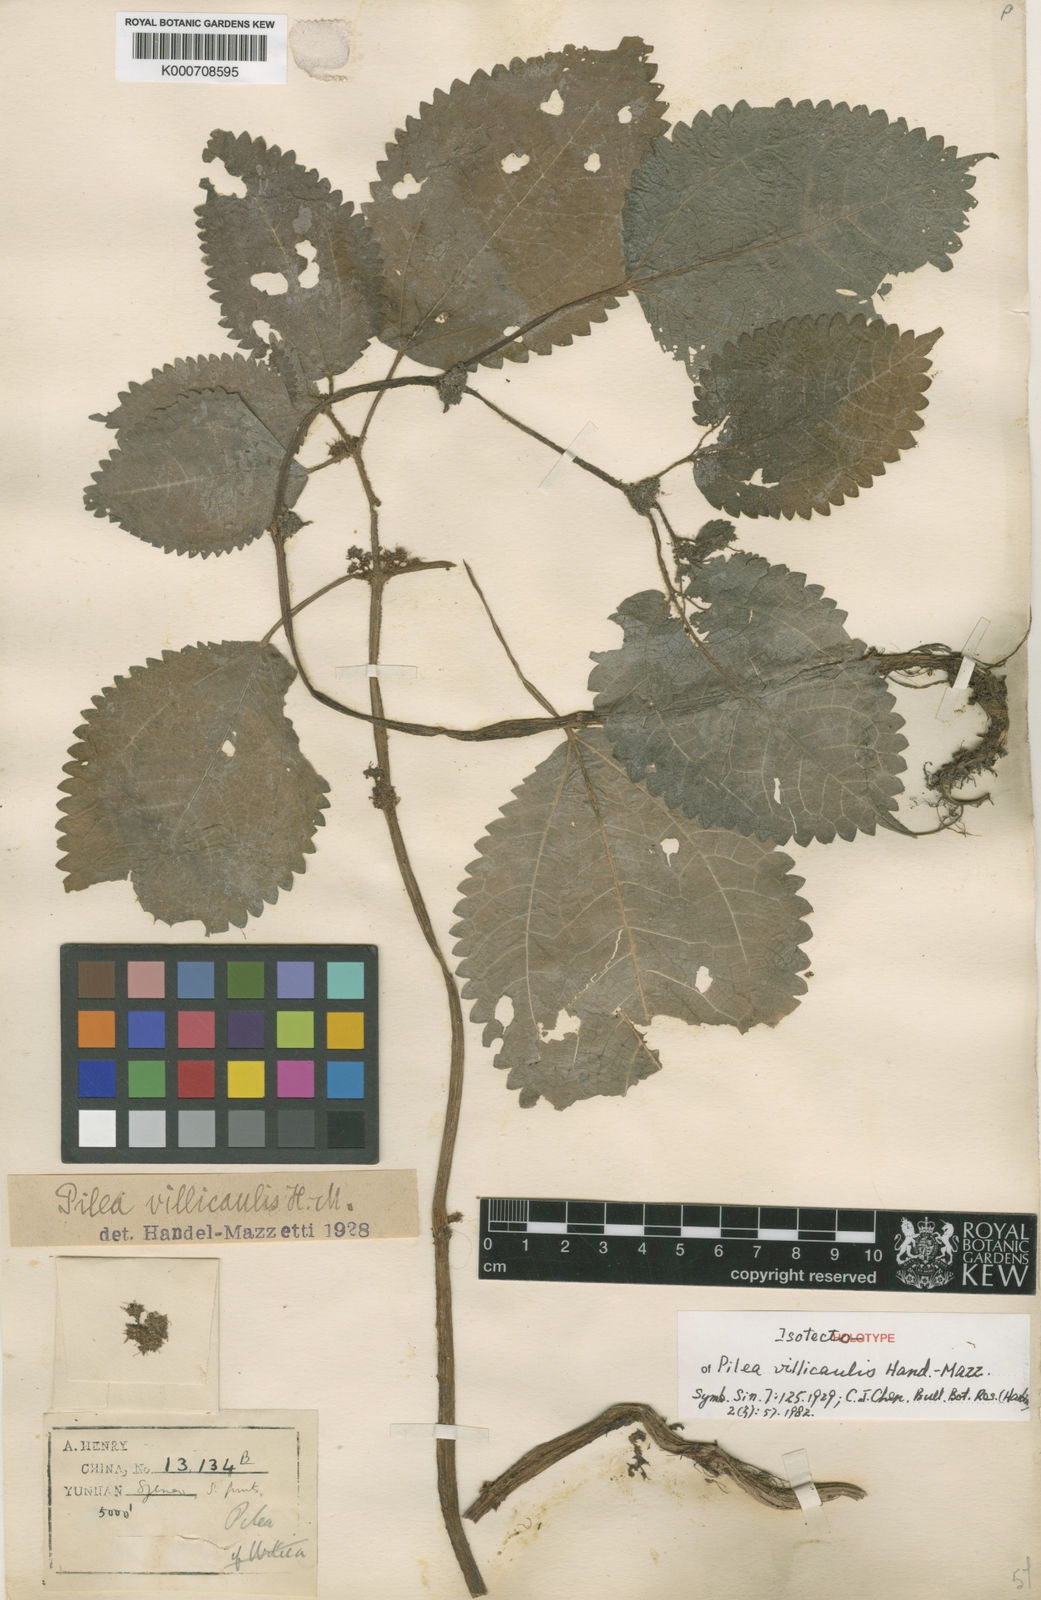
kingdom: Plantae
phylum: Tracheophyta
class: Magnoliopsida
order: Rosales
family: Urticaceae
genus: Pilea
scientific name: Pilea villicaulis
